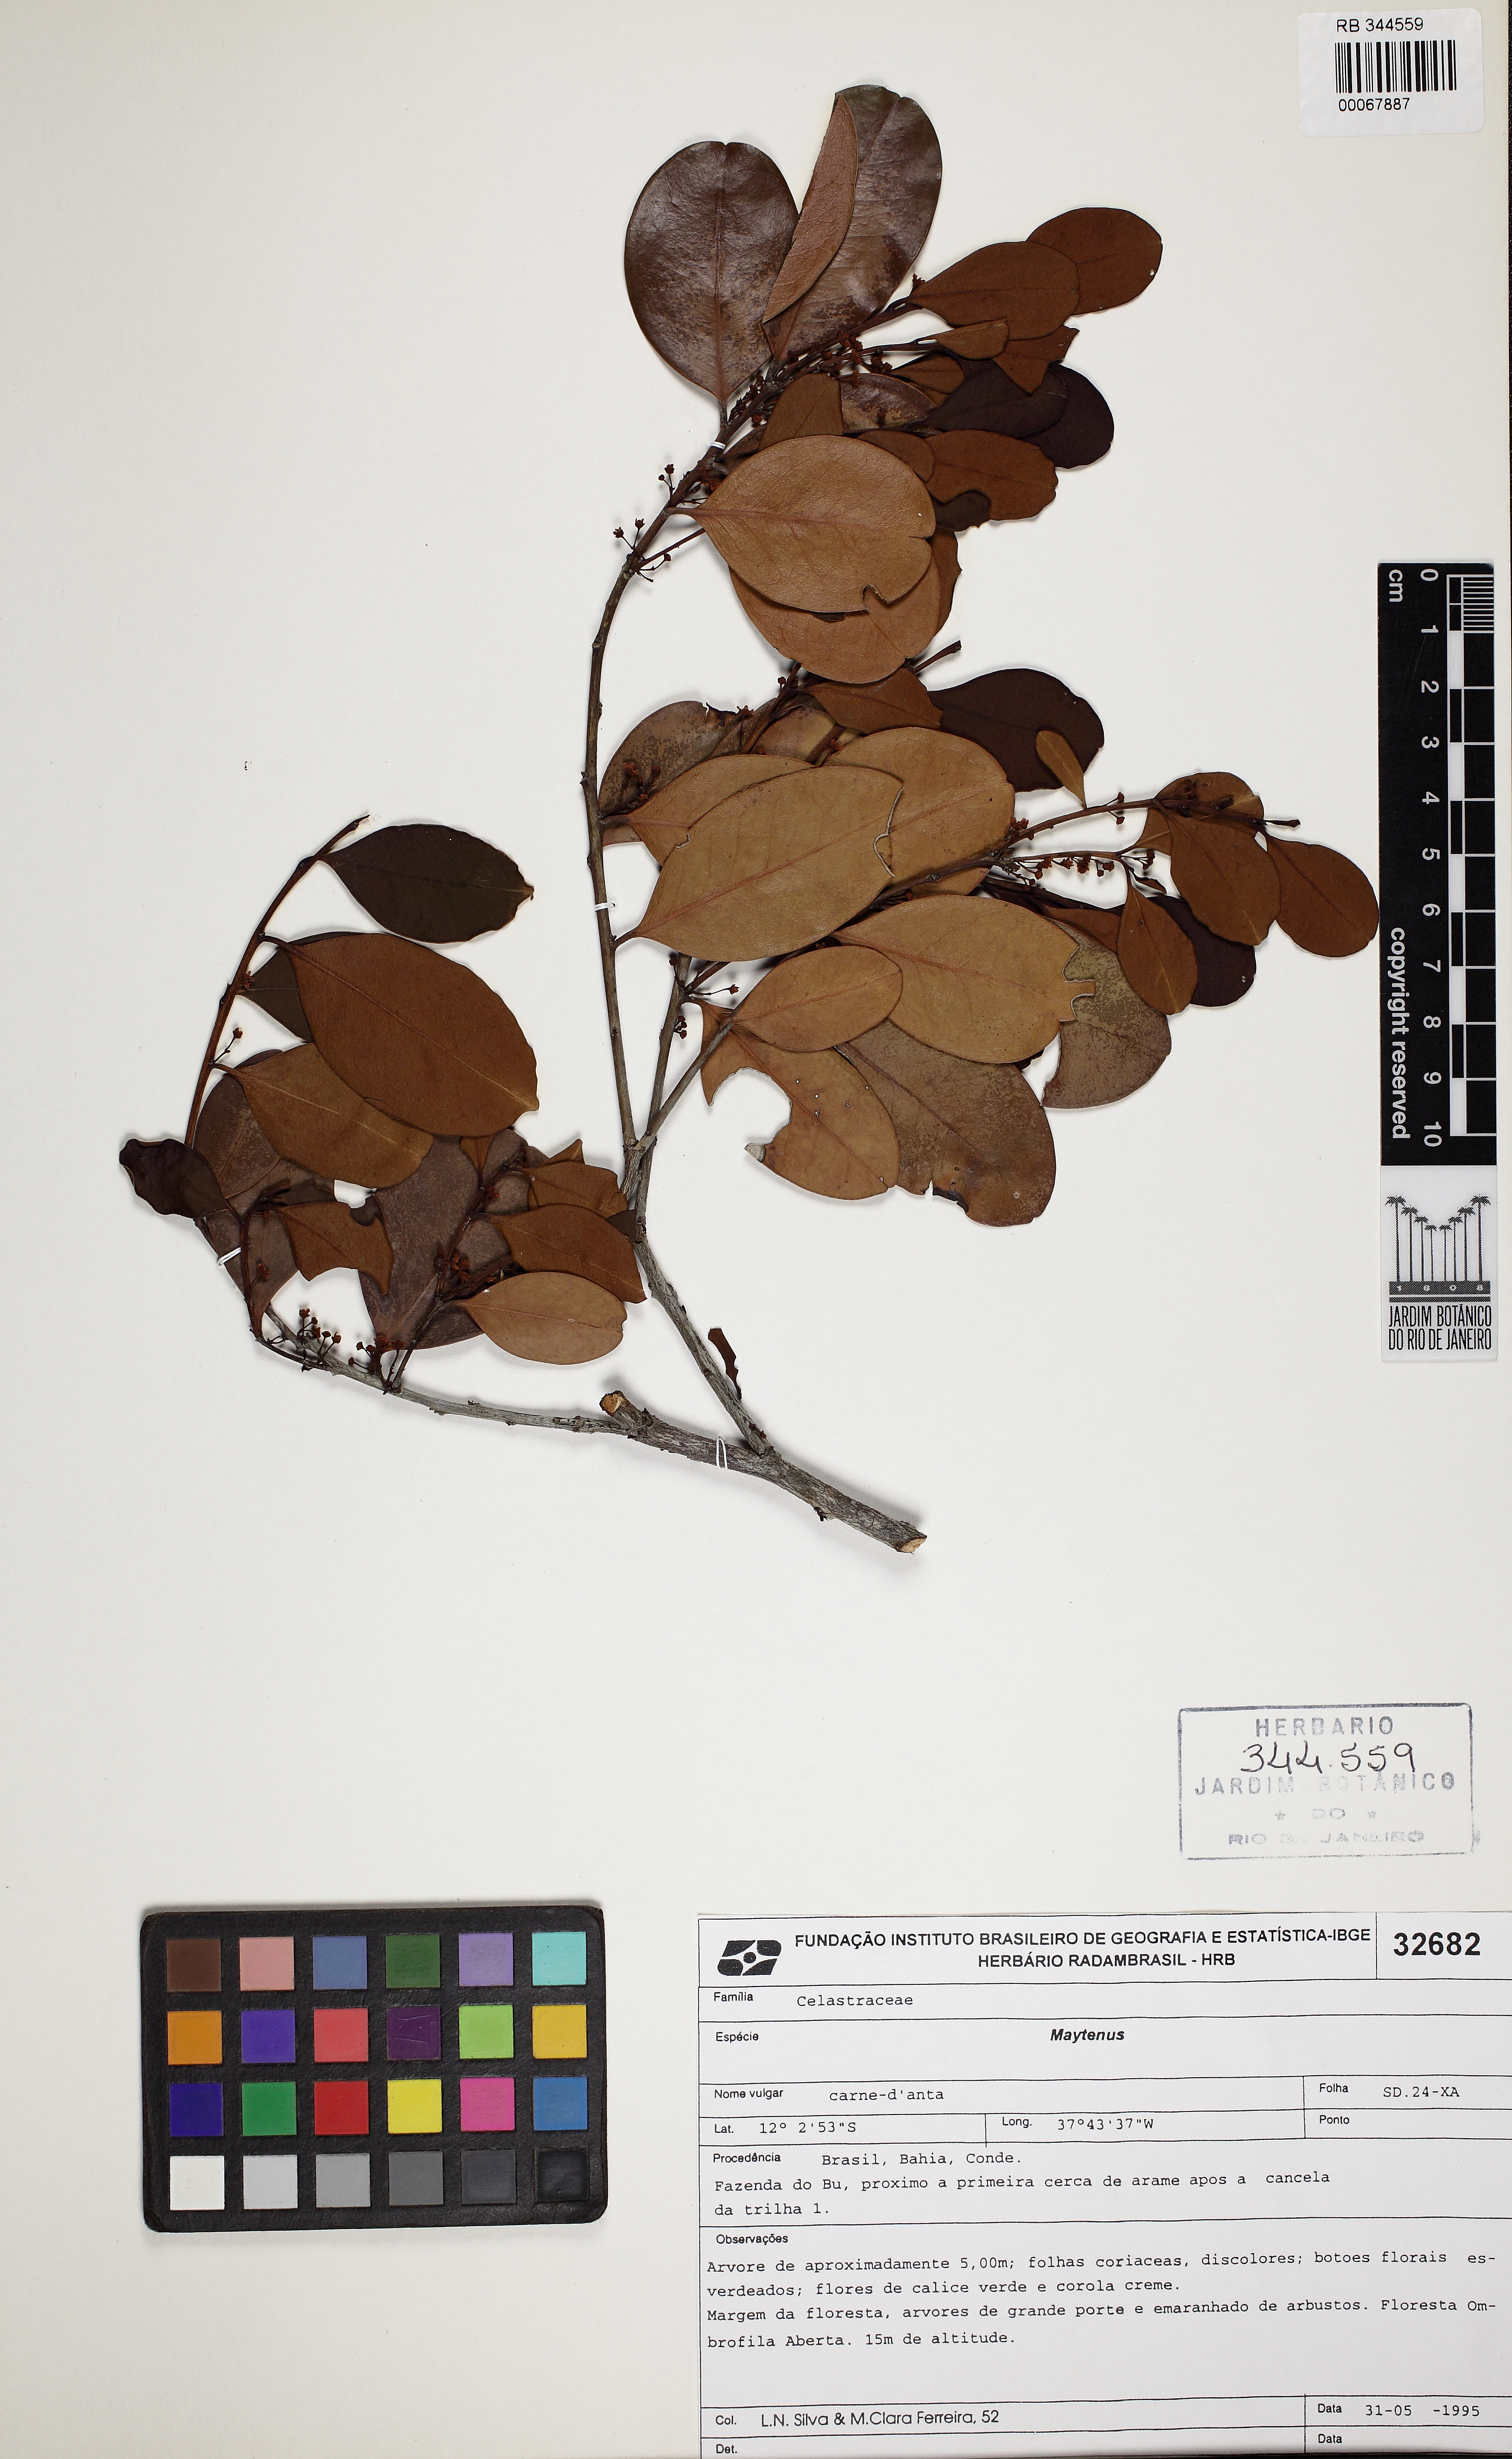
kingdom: Plantae
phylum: Tracheophyta
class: Magnoliopsida
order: Celastrales
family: Celastraceae
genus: Monteverdia
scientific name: Monteverdia obtusifolia
